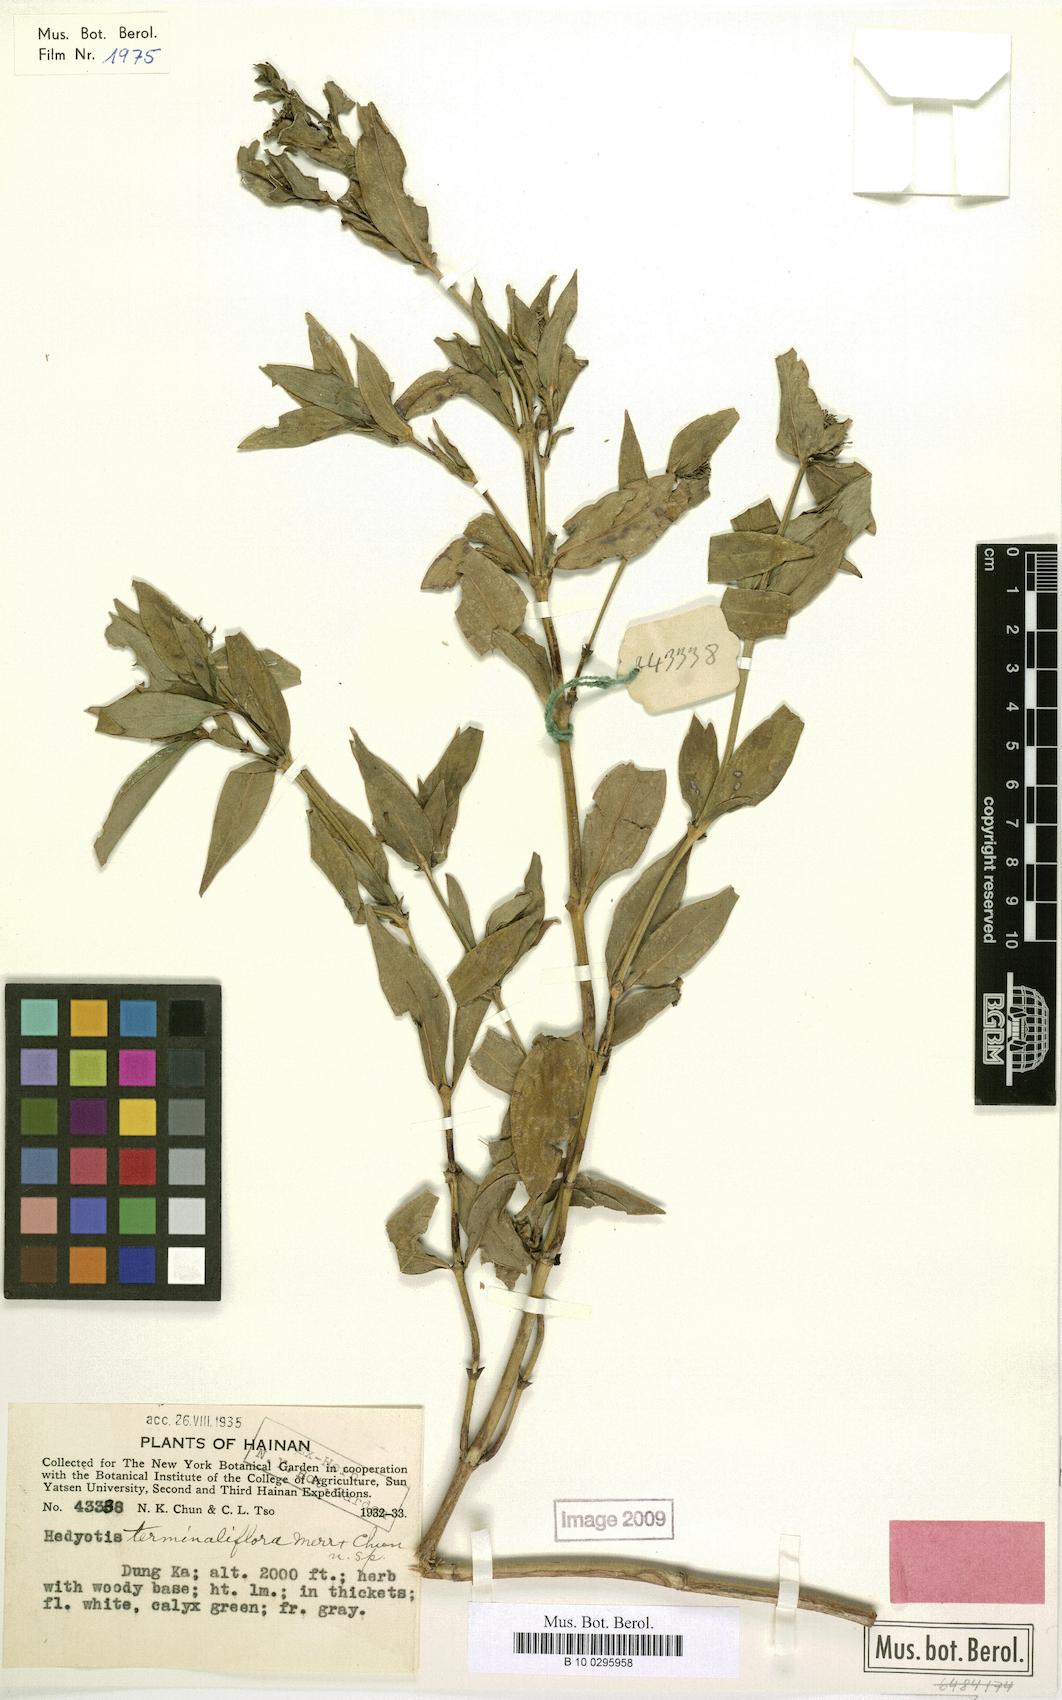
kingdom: Plantae
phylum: Tracheophyta
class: Magnoliopsida
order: Gentianales
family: Rubiaceae
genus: Hedyotis
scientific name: Hedyotis terminaliflora
